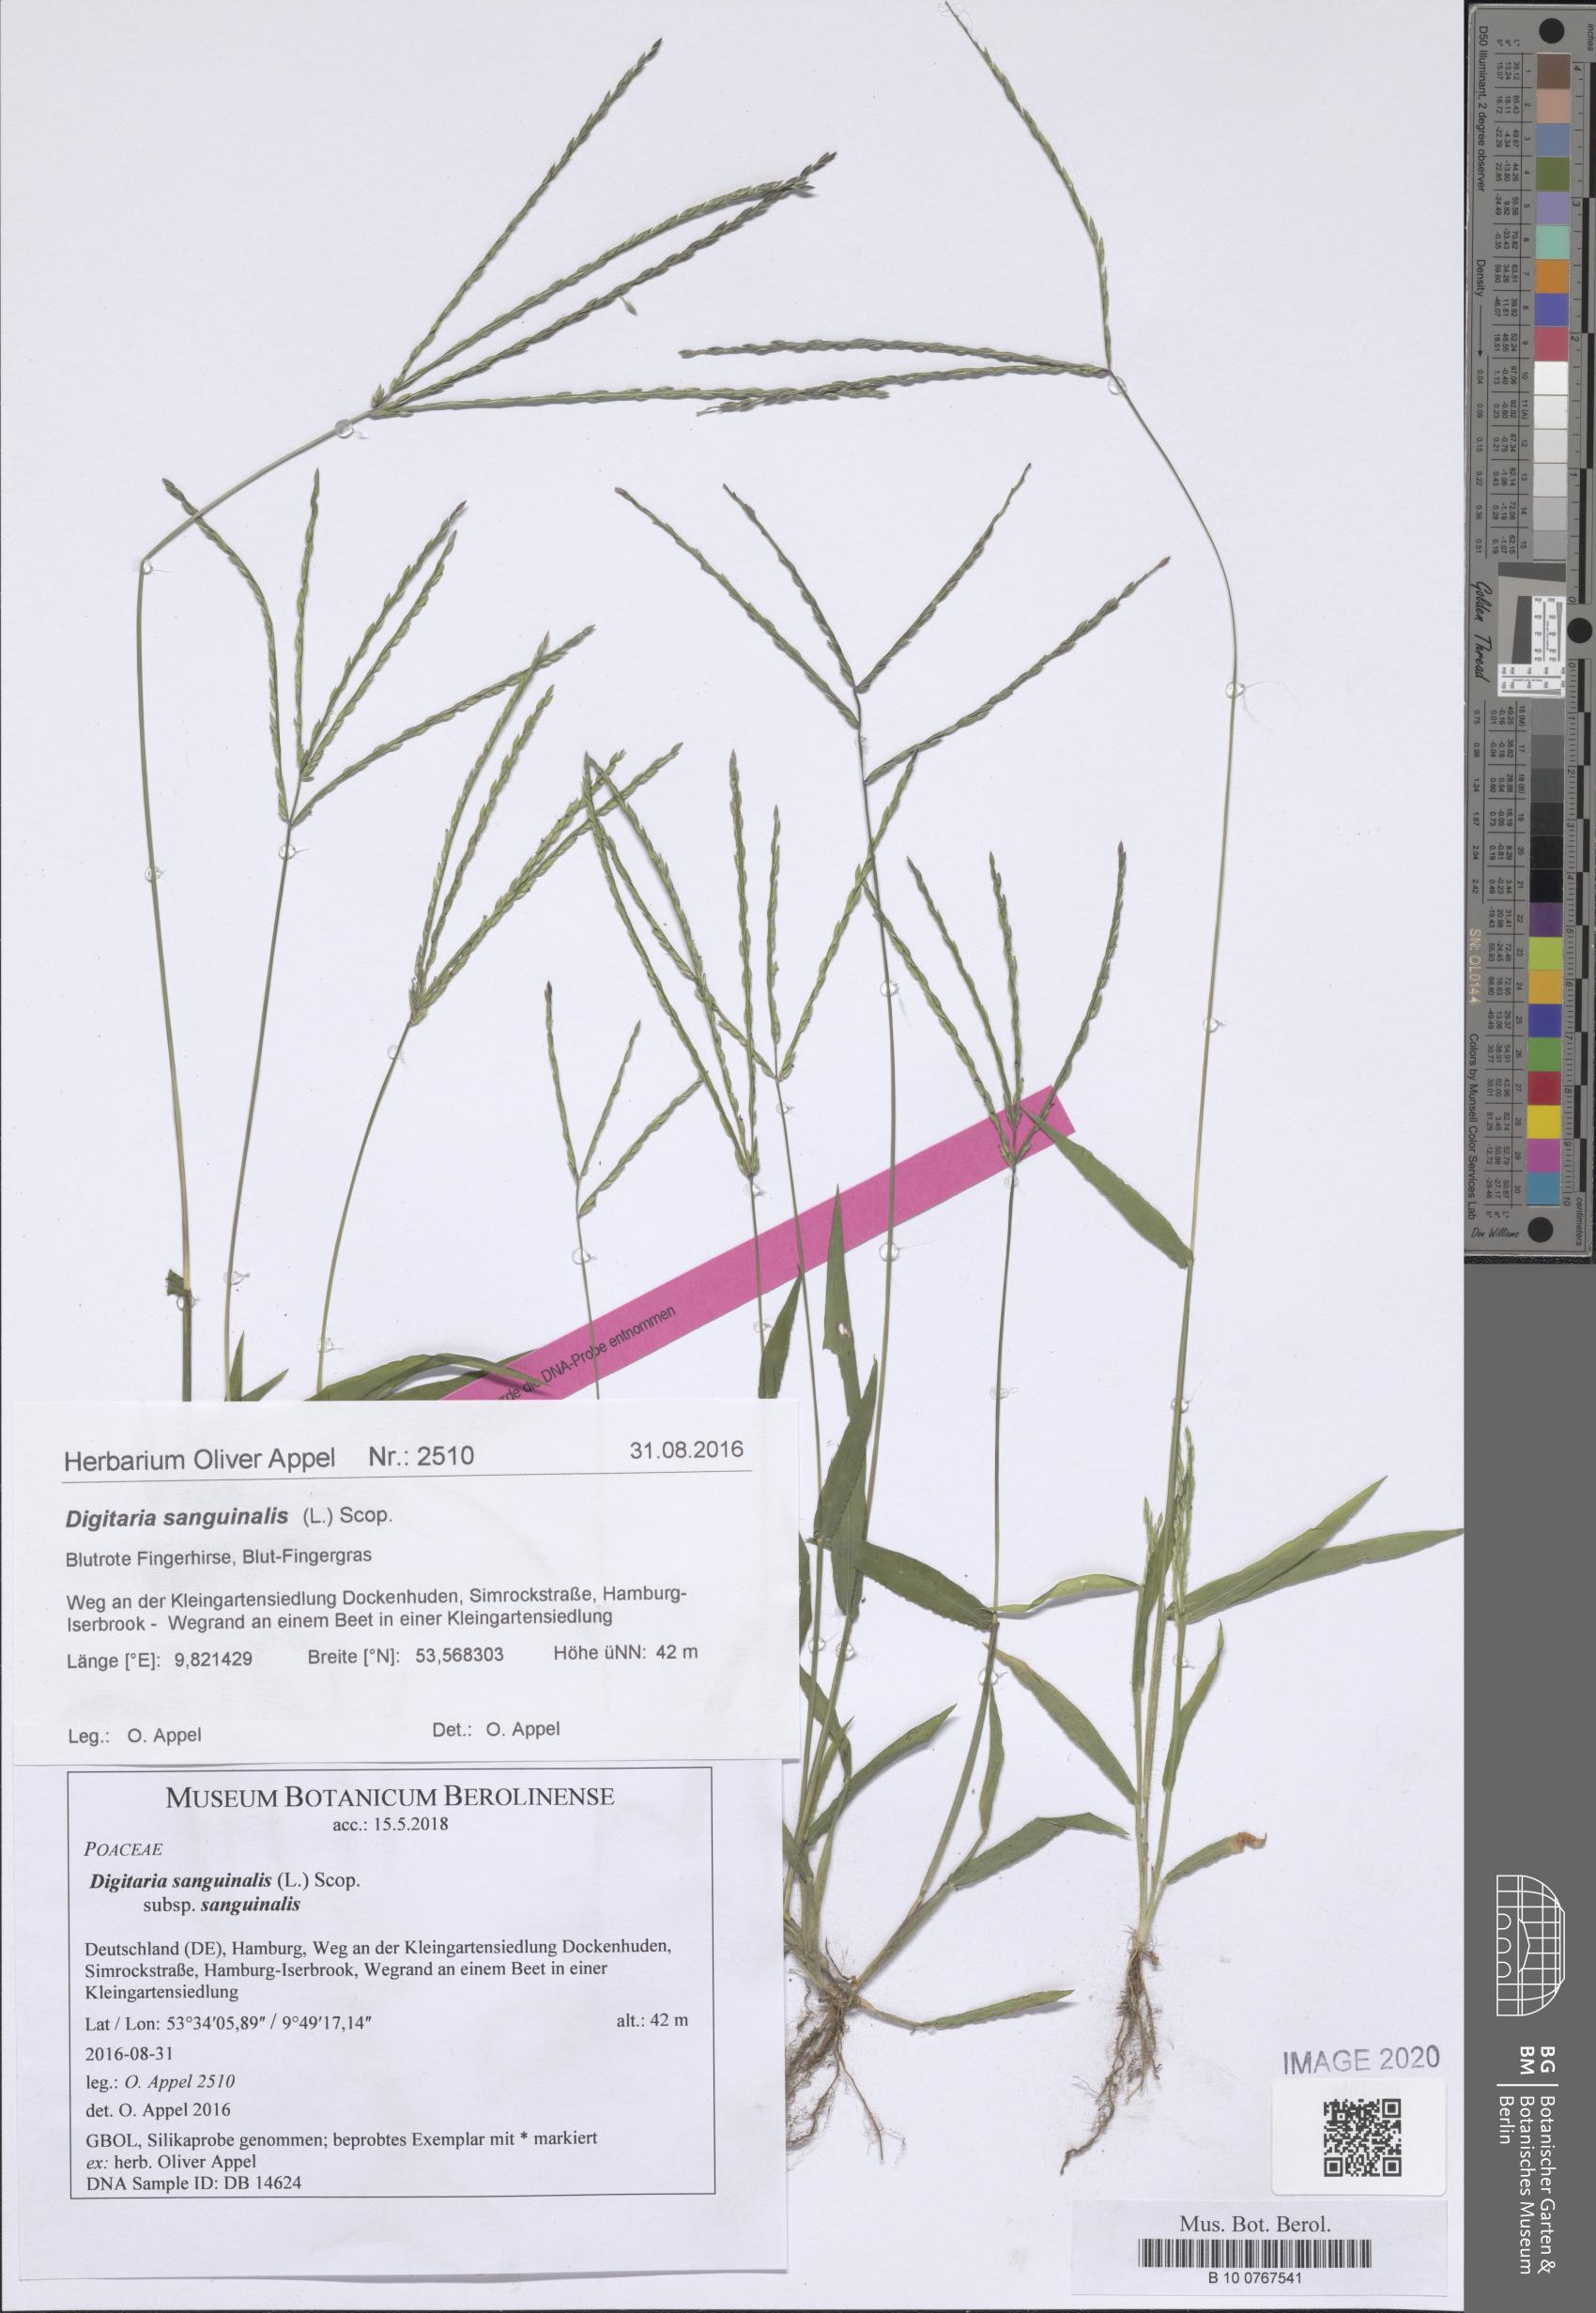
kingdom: Plantae
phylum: Tracheophyta
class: Liliopsida
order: Poales
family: Poaceae
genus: Digitaria
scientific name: Digitaria sanguinalis
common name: Hairy crabgrass
